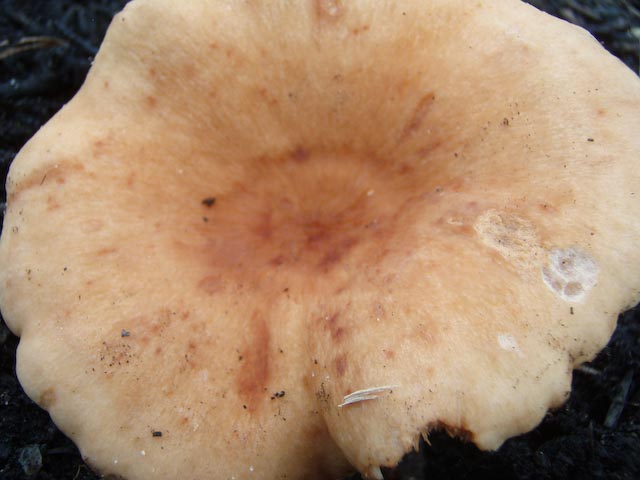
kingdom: Fungi
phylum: Basidiomycota
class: Agaricomycetes
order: Russulales
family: Russulaceae
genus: Lactarius
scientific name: Lactarius rubrocinctus
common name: halsbånd-mælkehat
